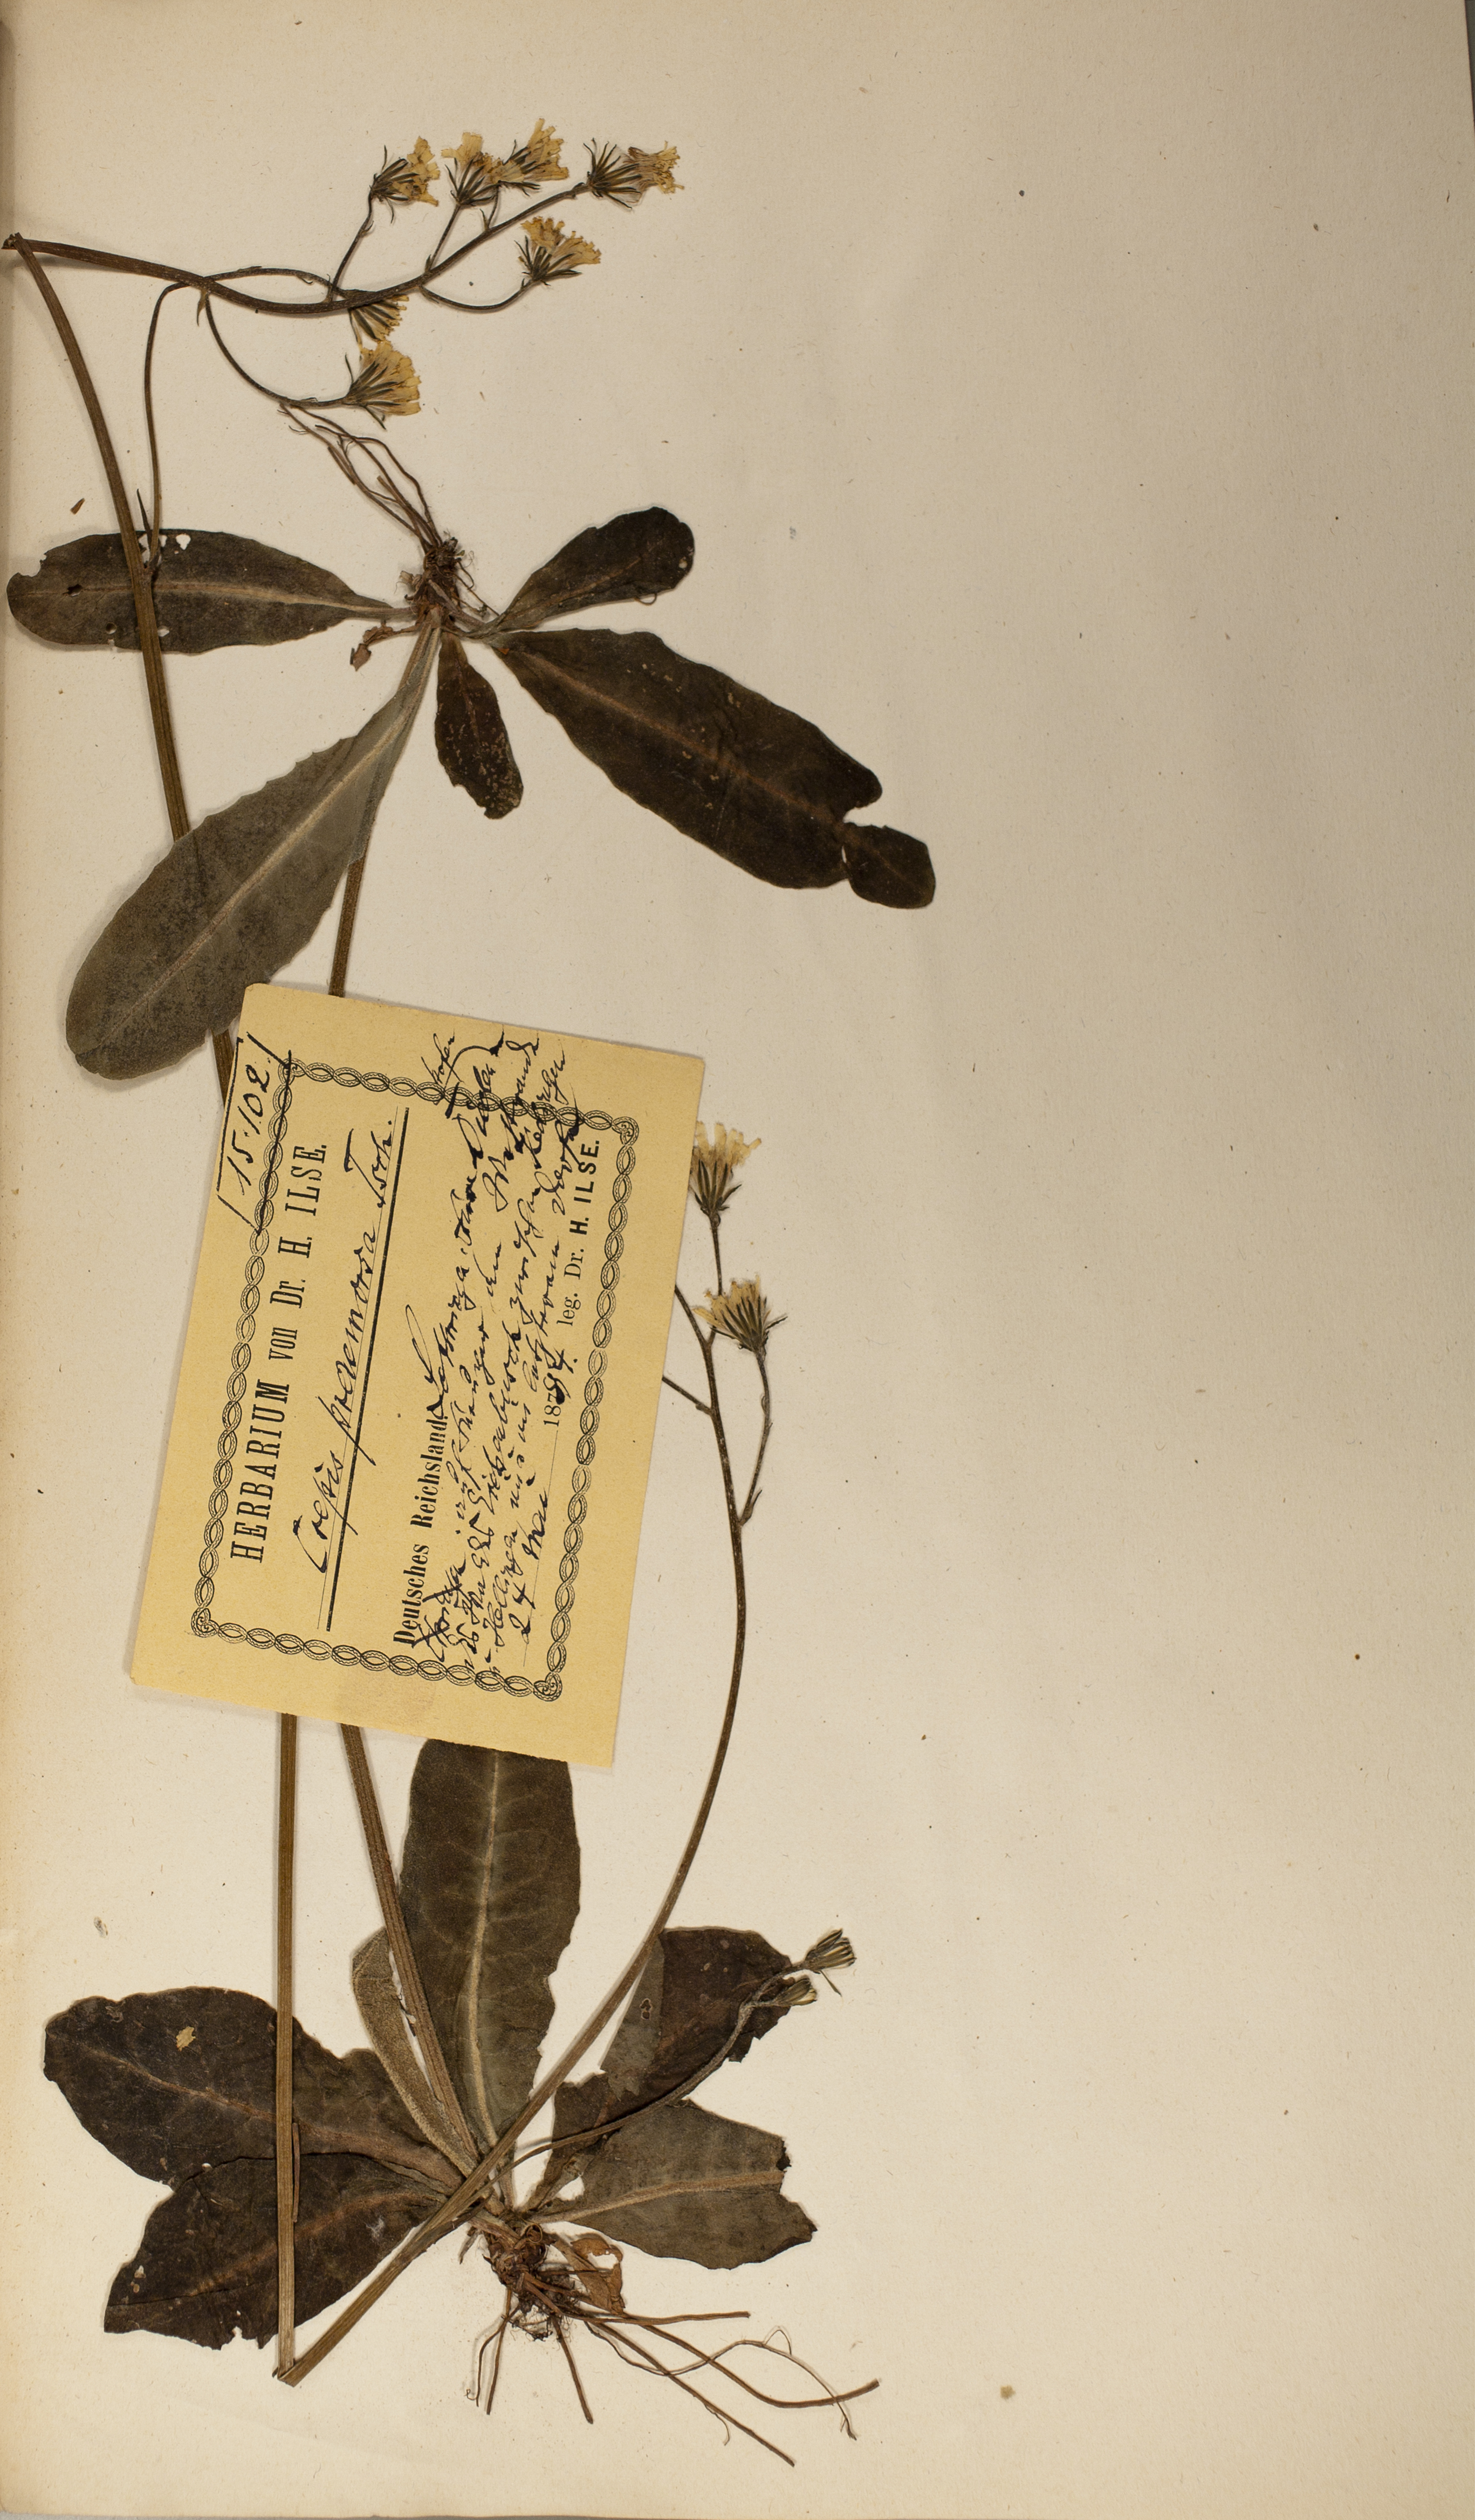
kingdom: Plantae
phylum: Tracheophyta
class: Magnoliopsida
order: Asterales
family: Asteraceae
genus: Crepis
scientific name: Crepis praemorsa
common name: Leafless hawk's-beard
